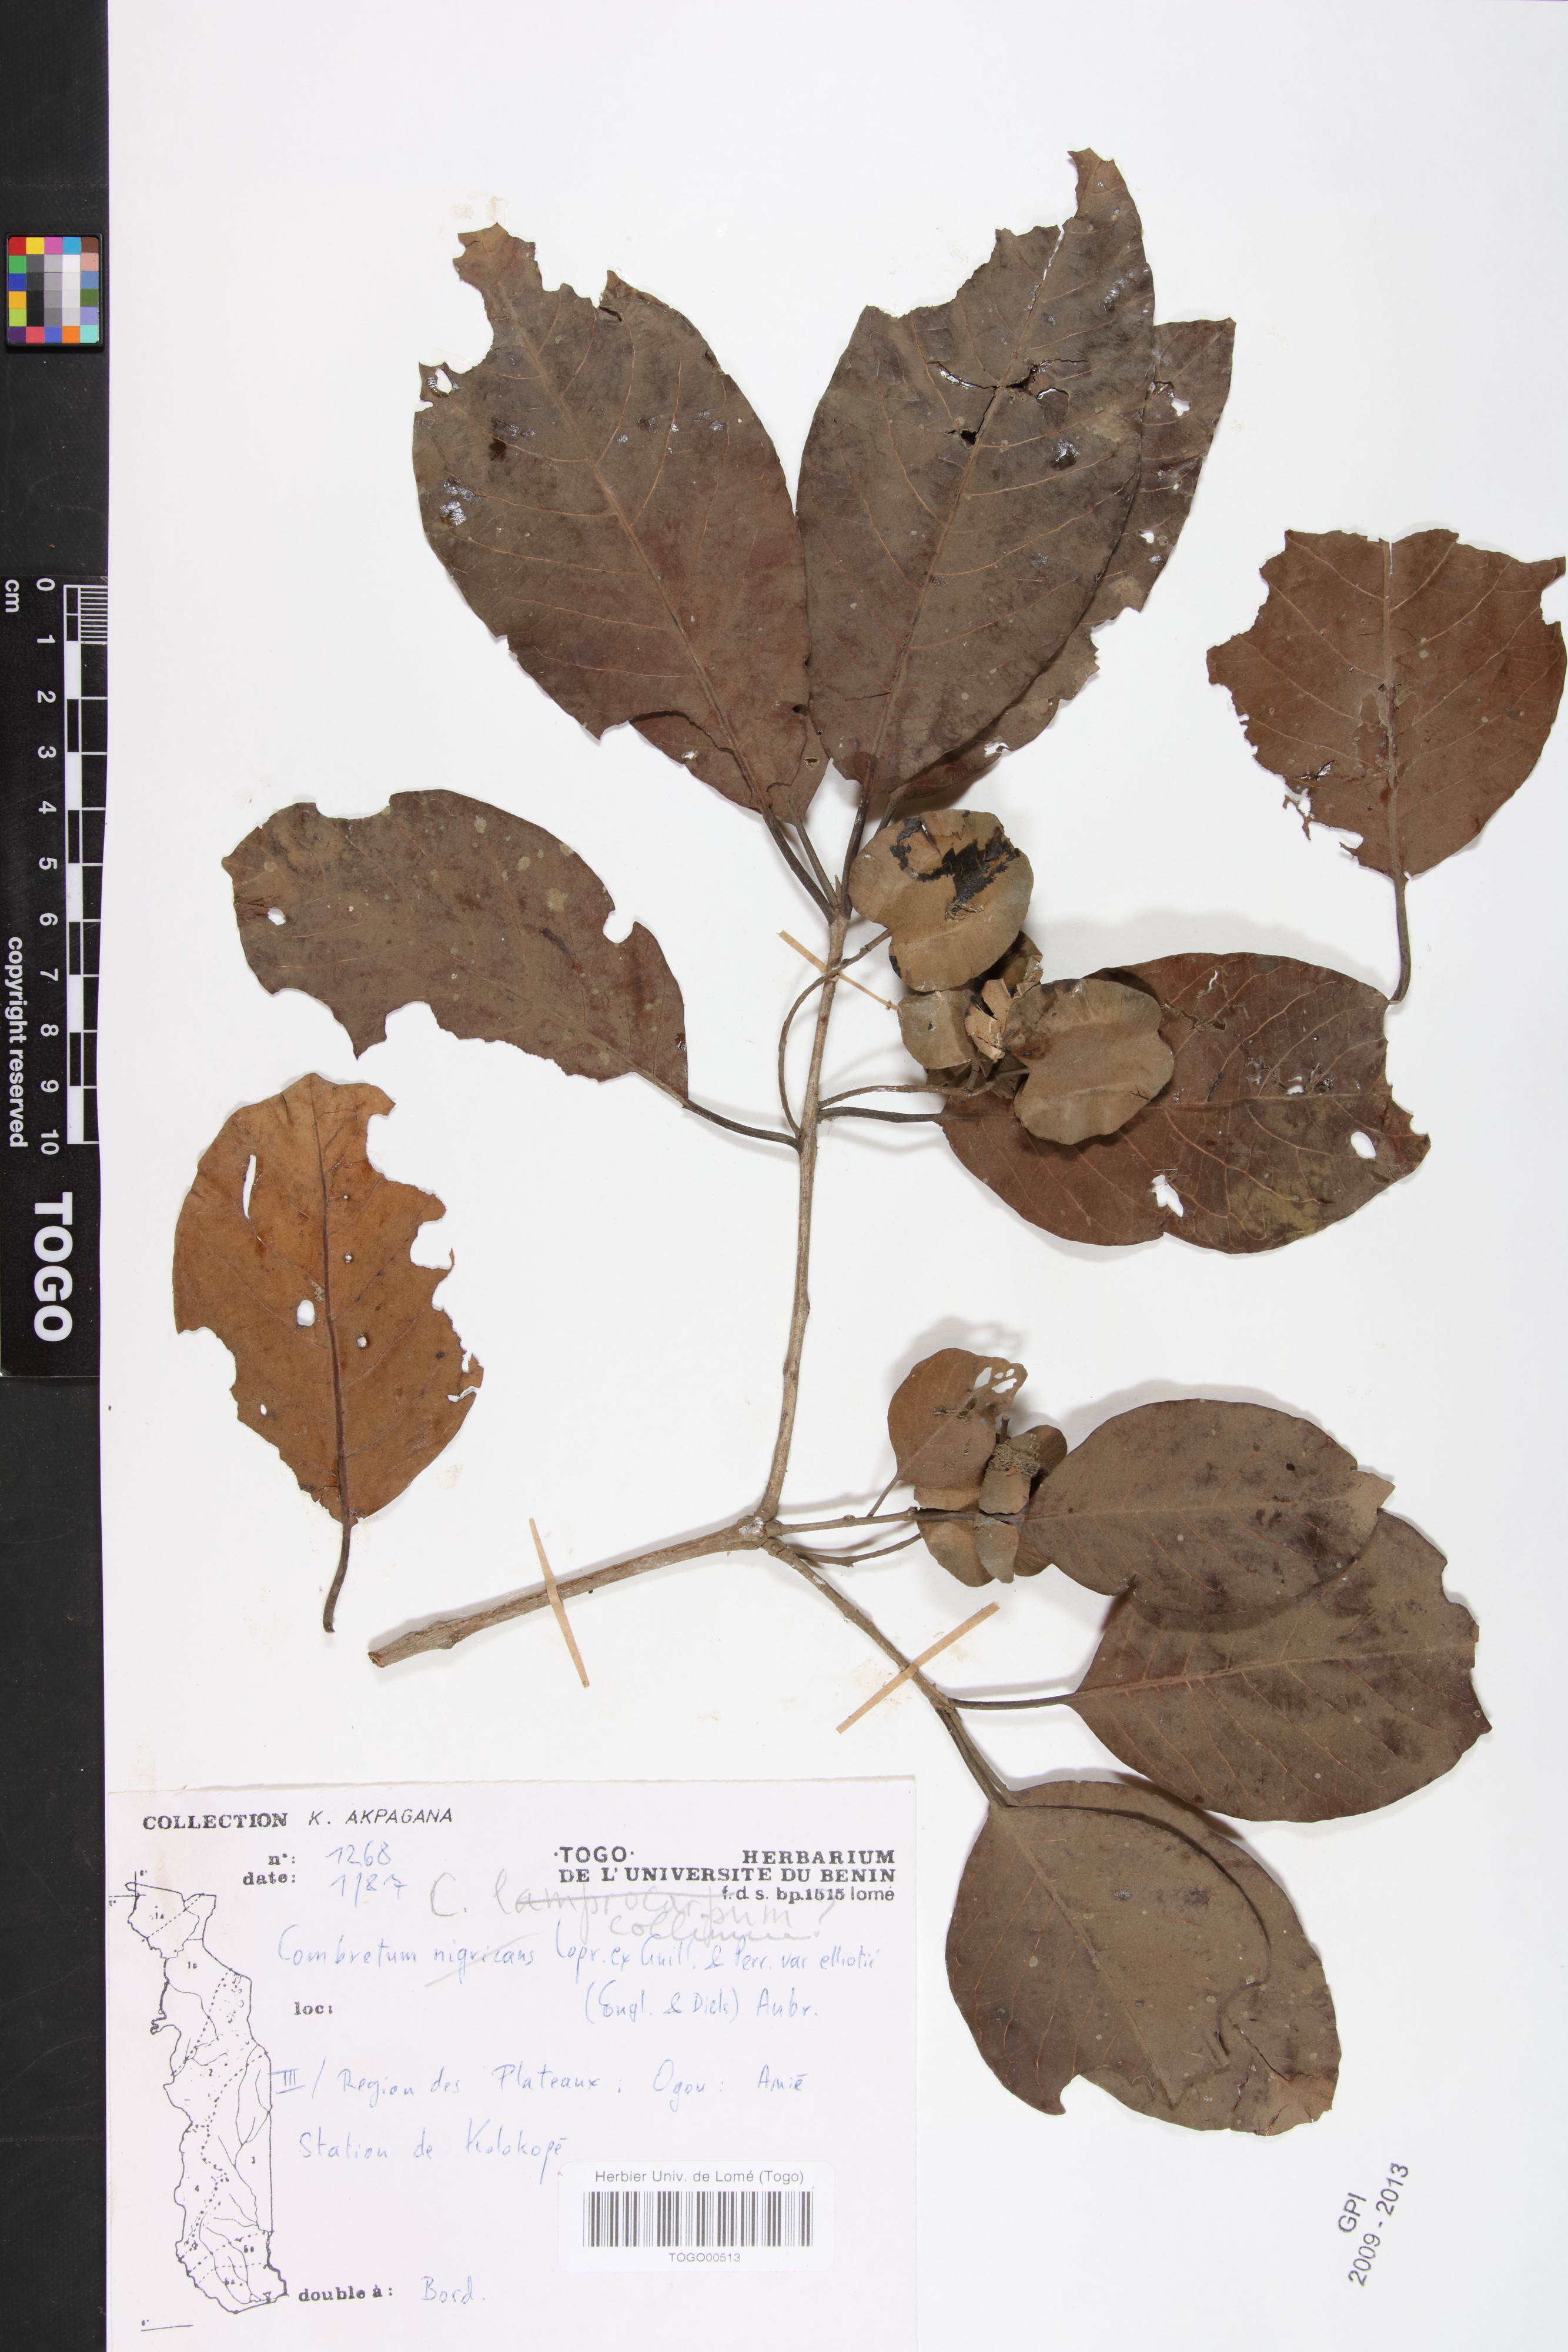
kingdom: Plantae
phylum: Tracheophyta
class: Magnoliopsida
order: Myrtales
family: Combretaceae
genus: Combretum
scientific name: Combretum collinum
